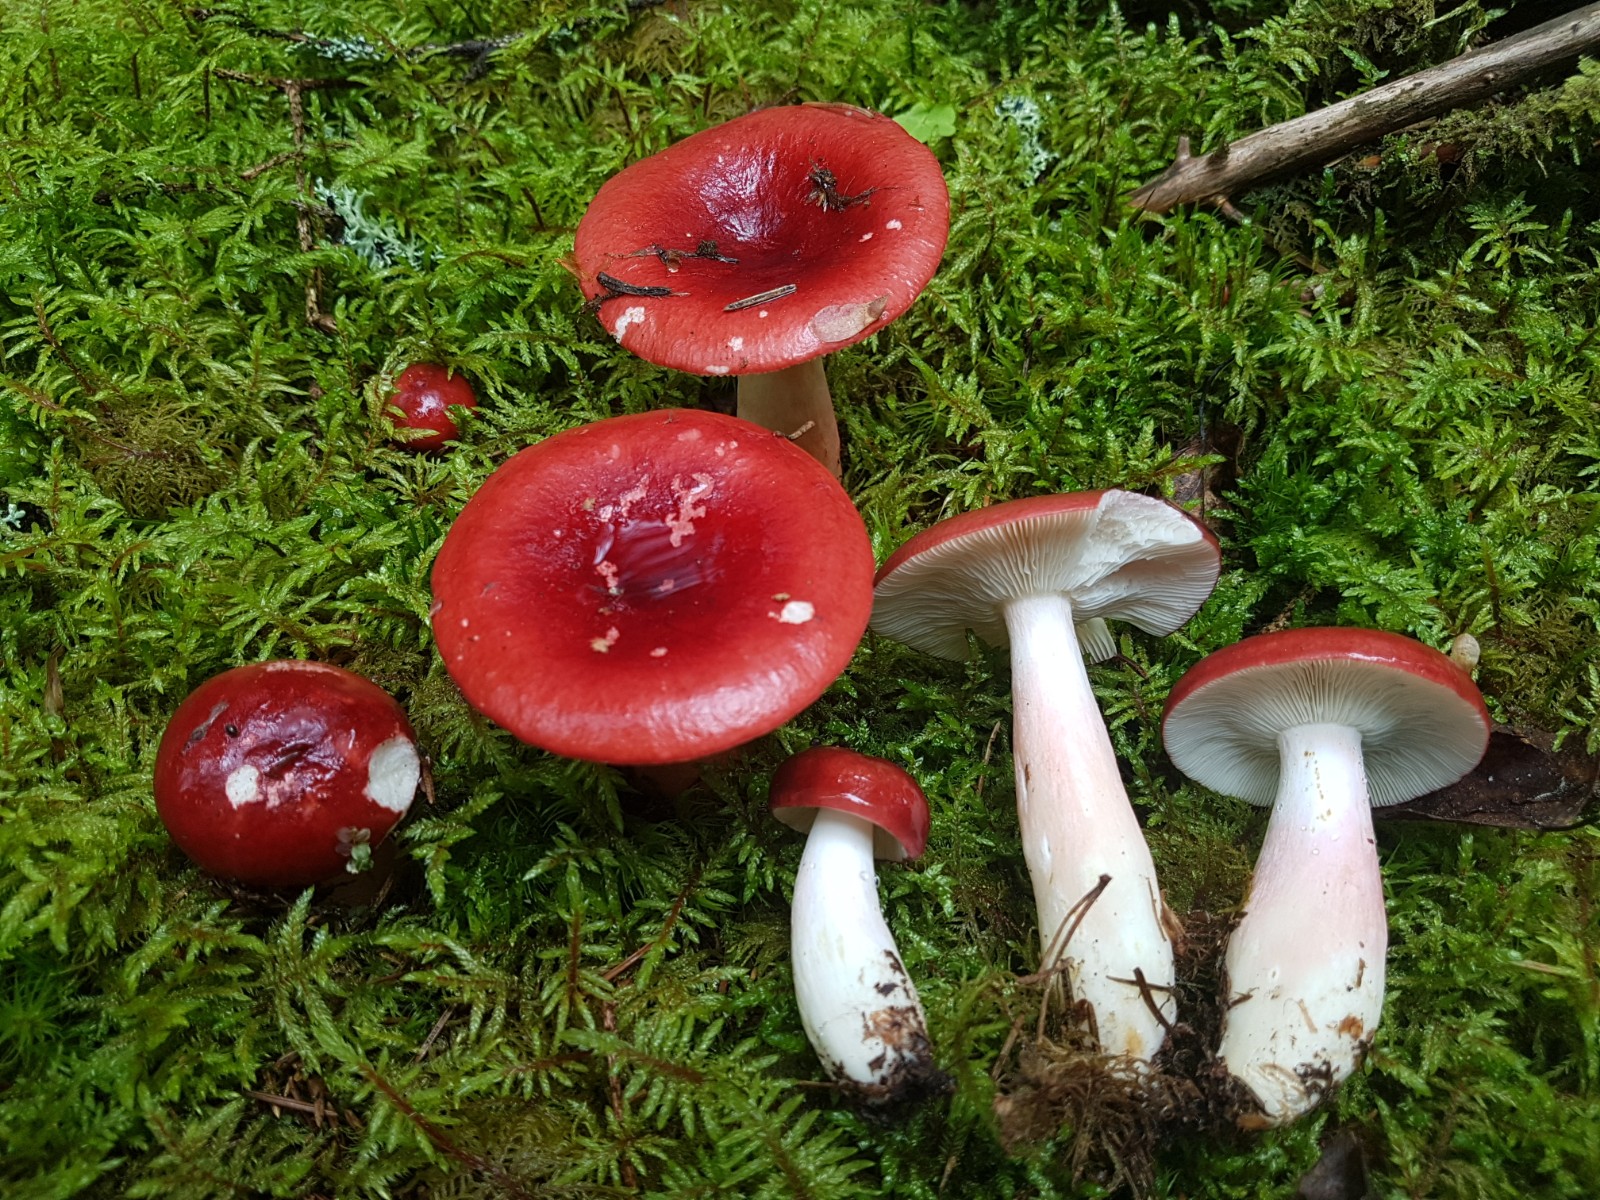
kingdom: Fungi
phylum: Basidiomycota
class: Agaricomycetes
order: Russulales
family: Russulaceae
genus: Russula
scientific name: Russula queletii
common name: Quélets skørhat
